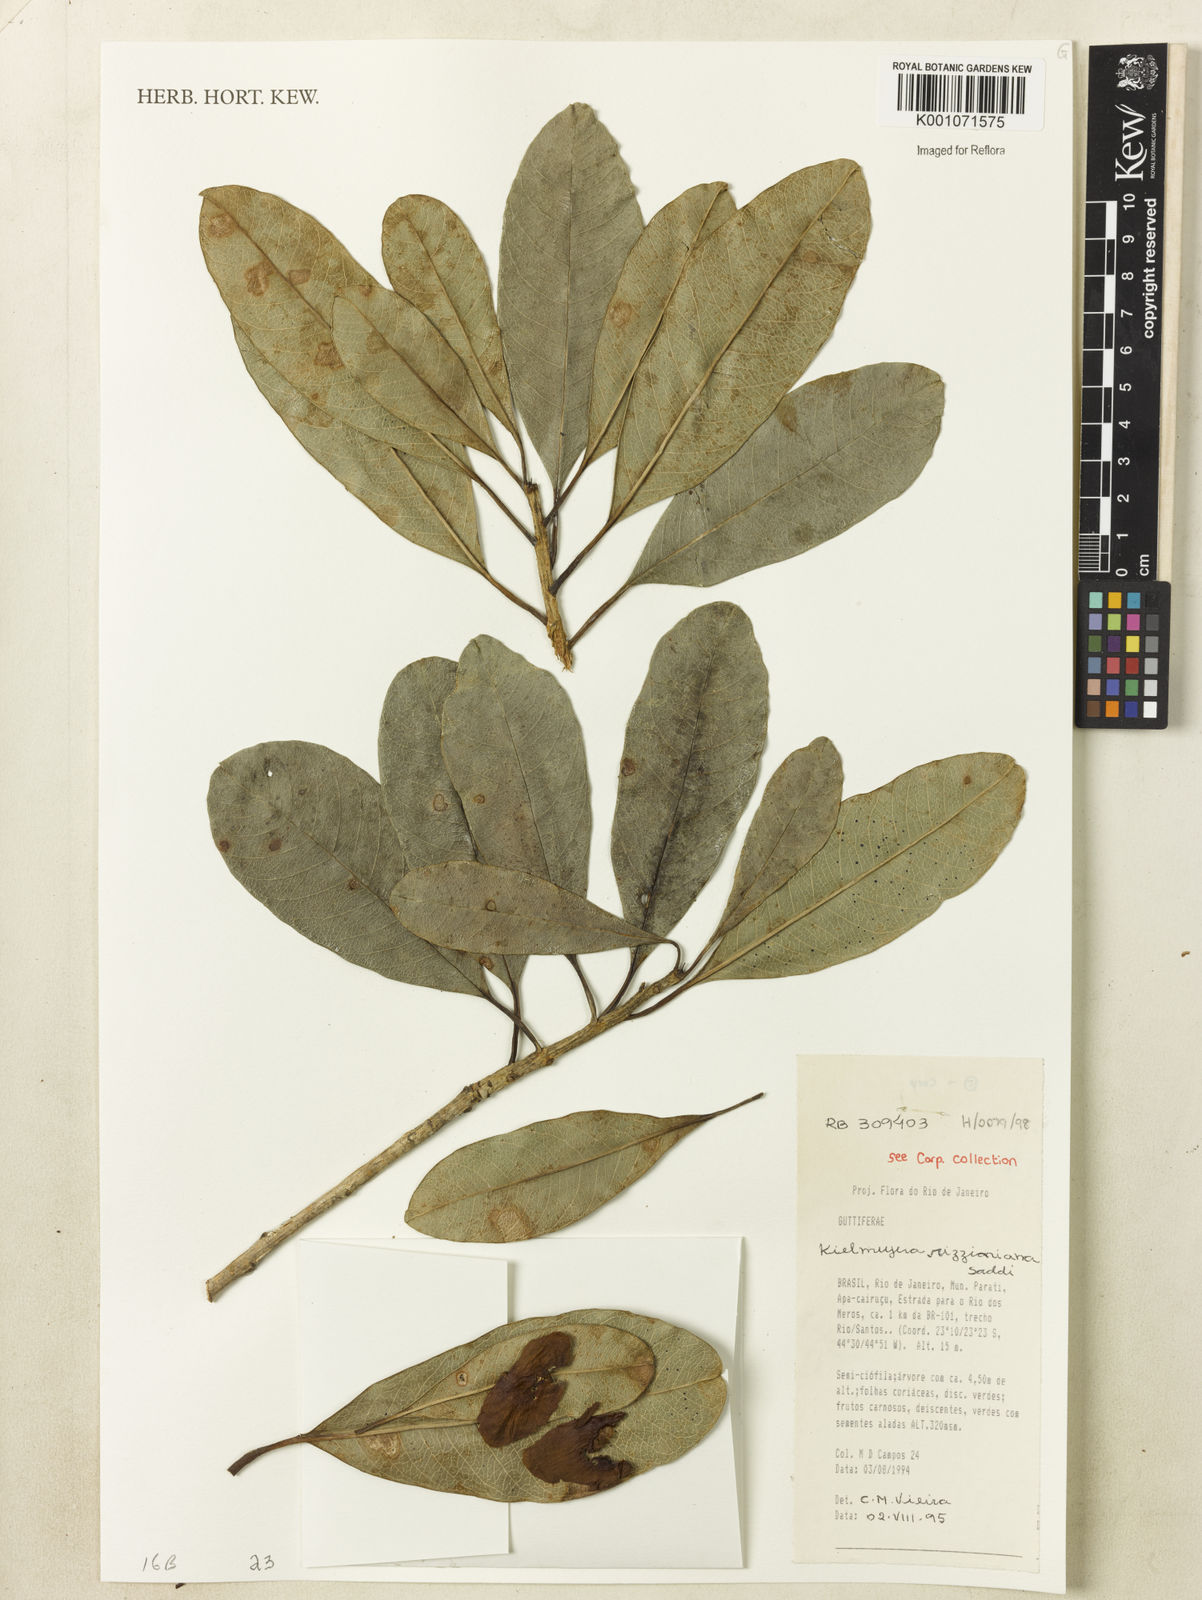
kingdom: Plantae
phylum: Tracheophyta
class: Magnoliopsida
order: Malpighiales
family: Calophyllaceae
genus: Kielmeyera
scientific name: Kielmeyera rizziniana
